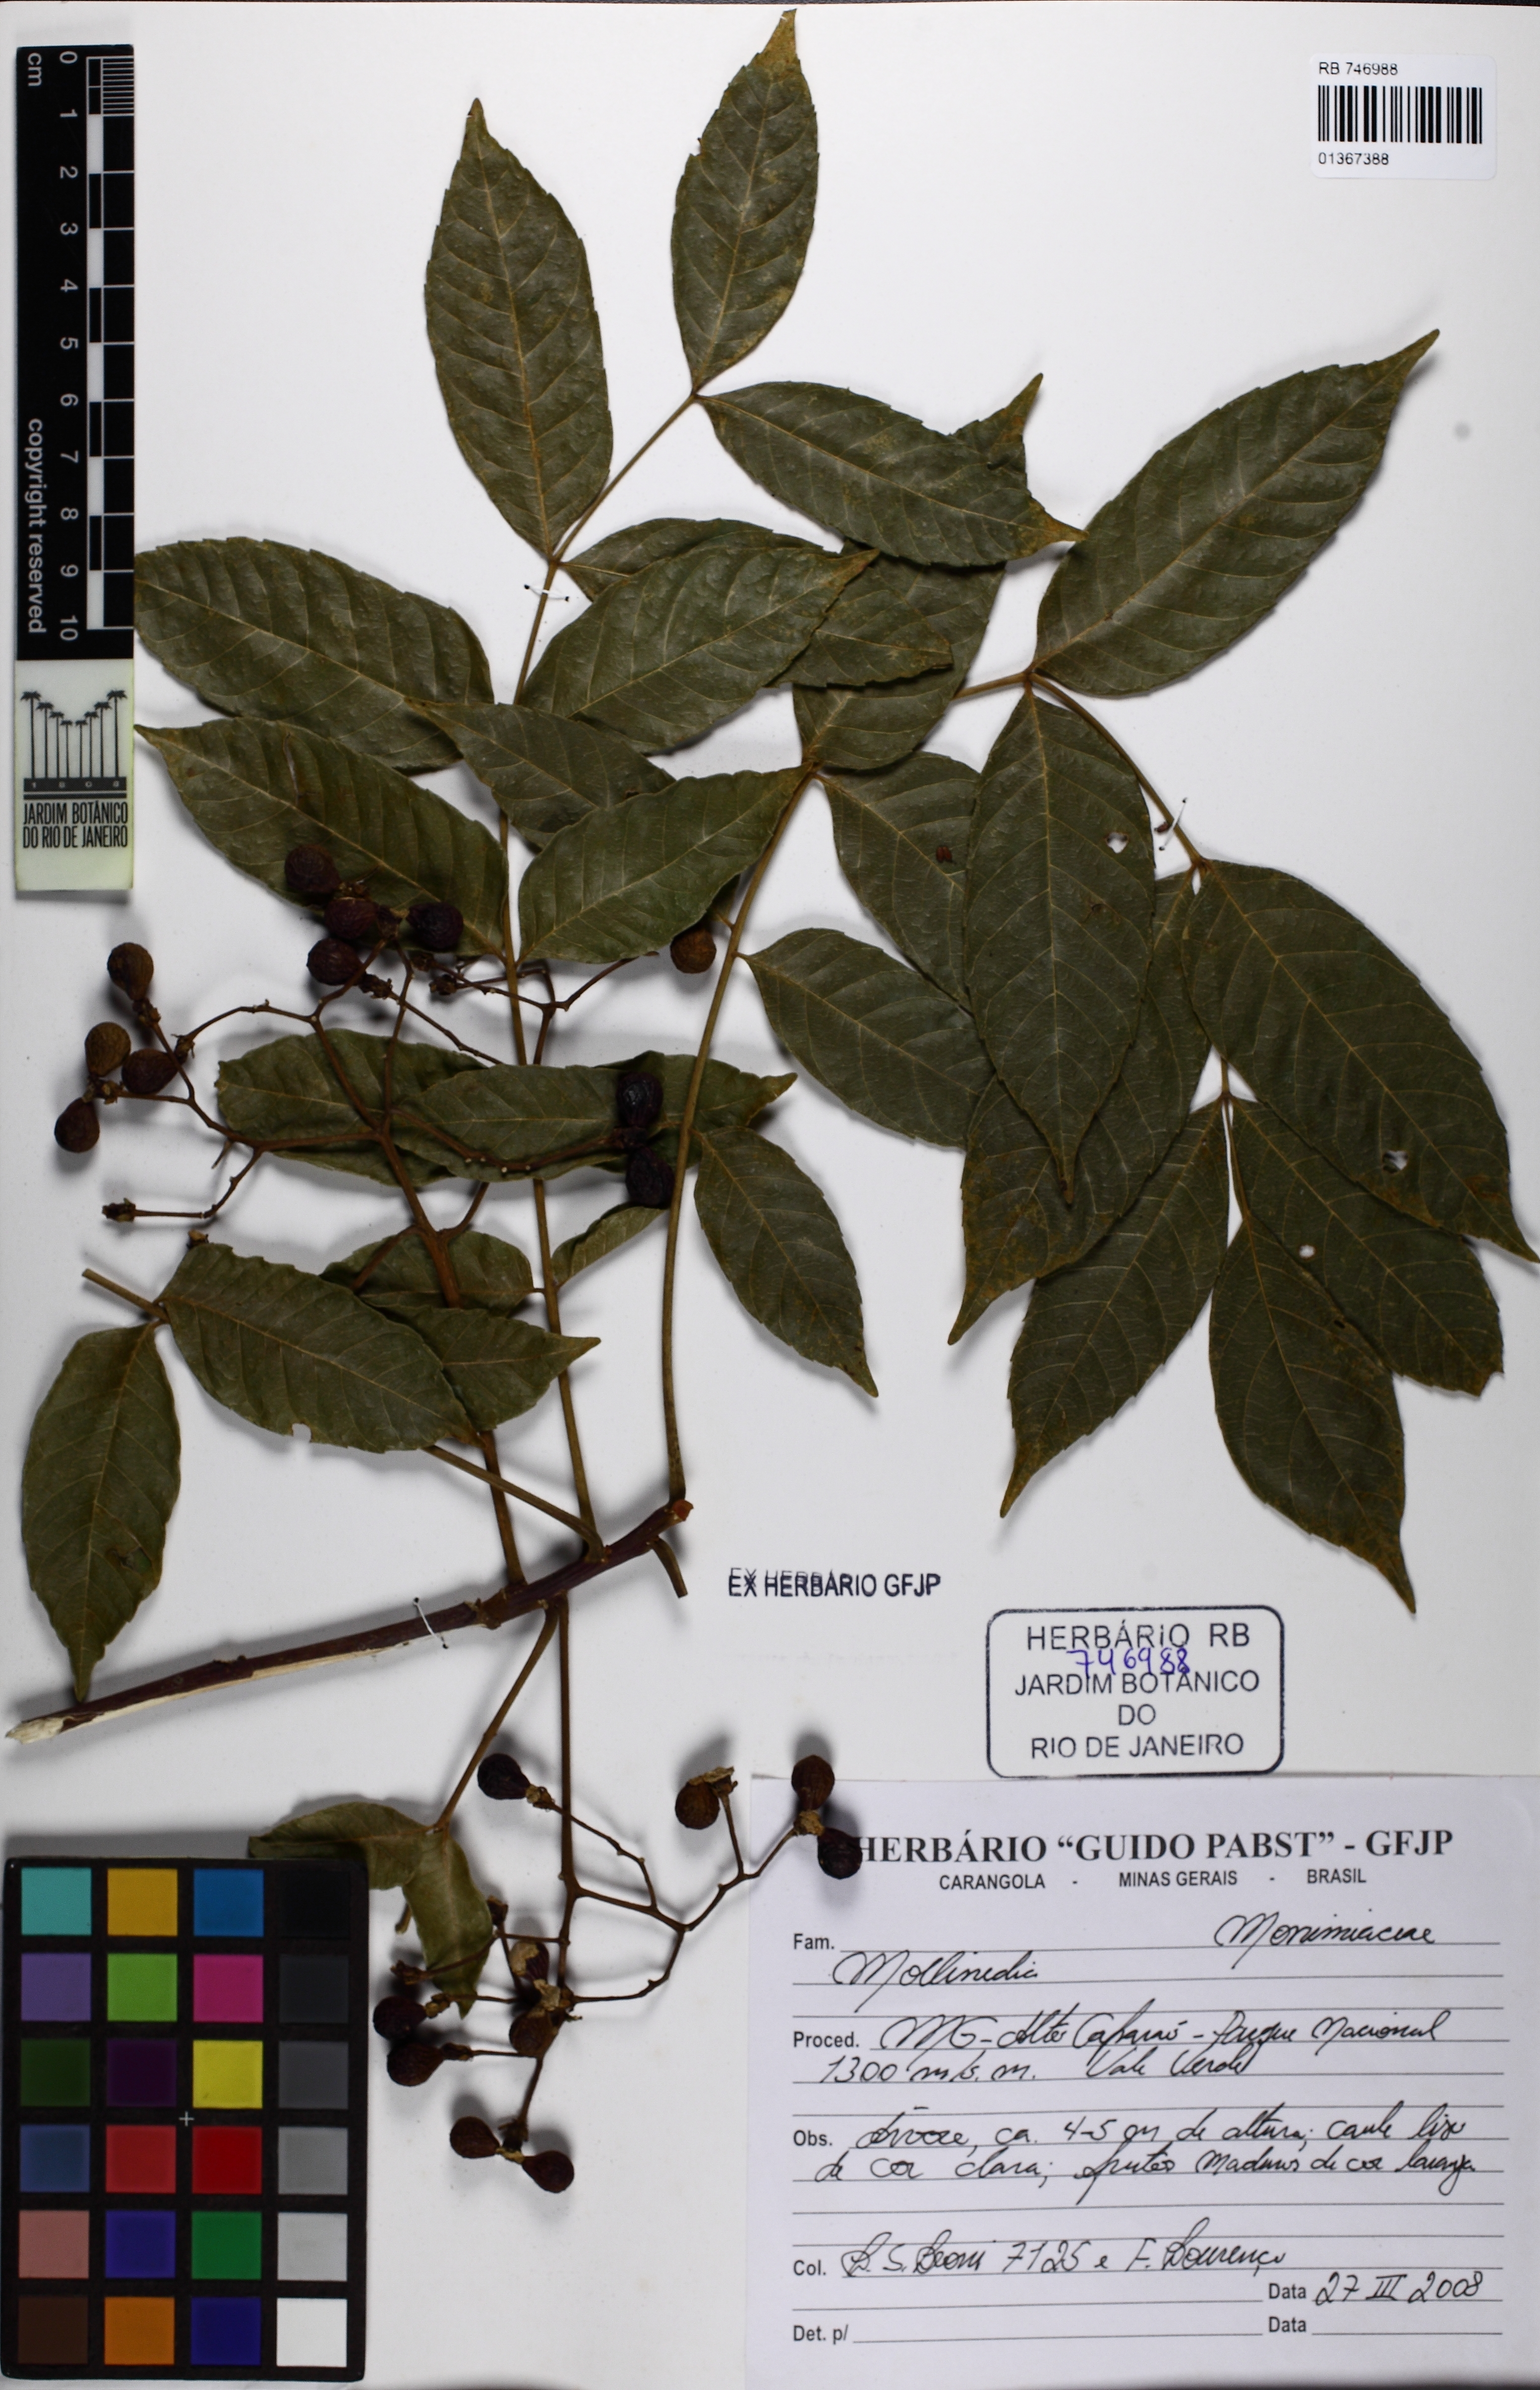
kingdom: Plantae
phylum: Tracheophyta
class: Magnoliopsida
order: Sapindales
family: Simaroubaceae
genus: Picrasma
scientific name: Picrasma crenata
